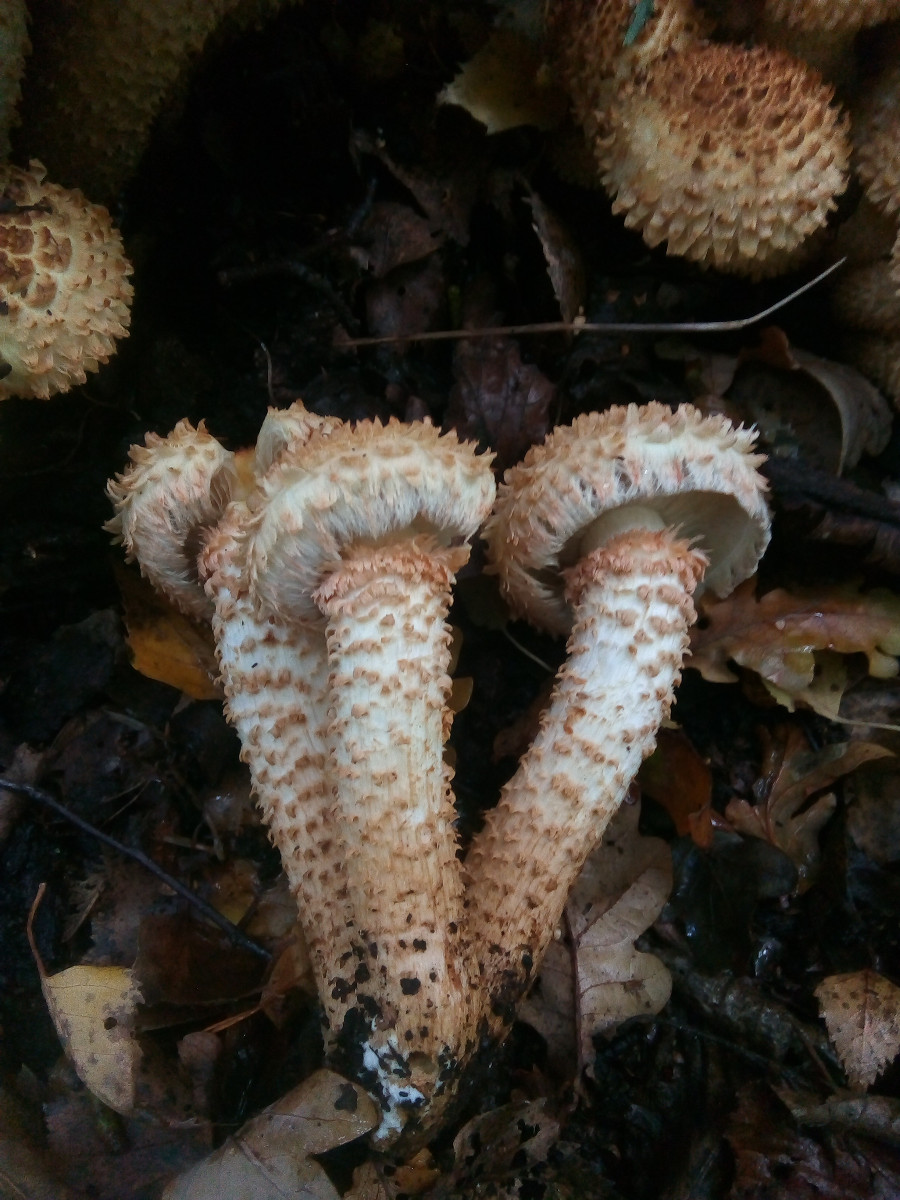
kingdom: Fungi
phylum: Basidiomycota
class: Agaricomycetes
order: Agaricales
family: Strophariaceae
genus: Pholiota
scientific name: Pholiota squarrosa
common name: krumskællet skælhat
